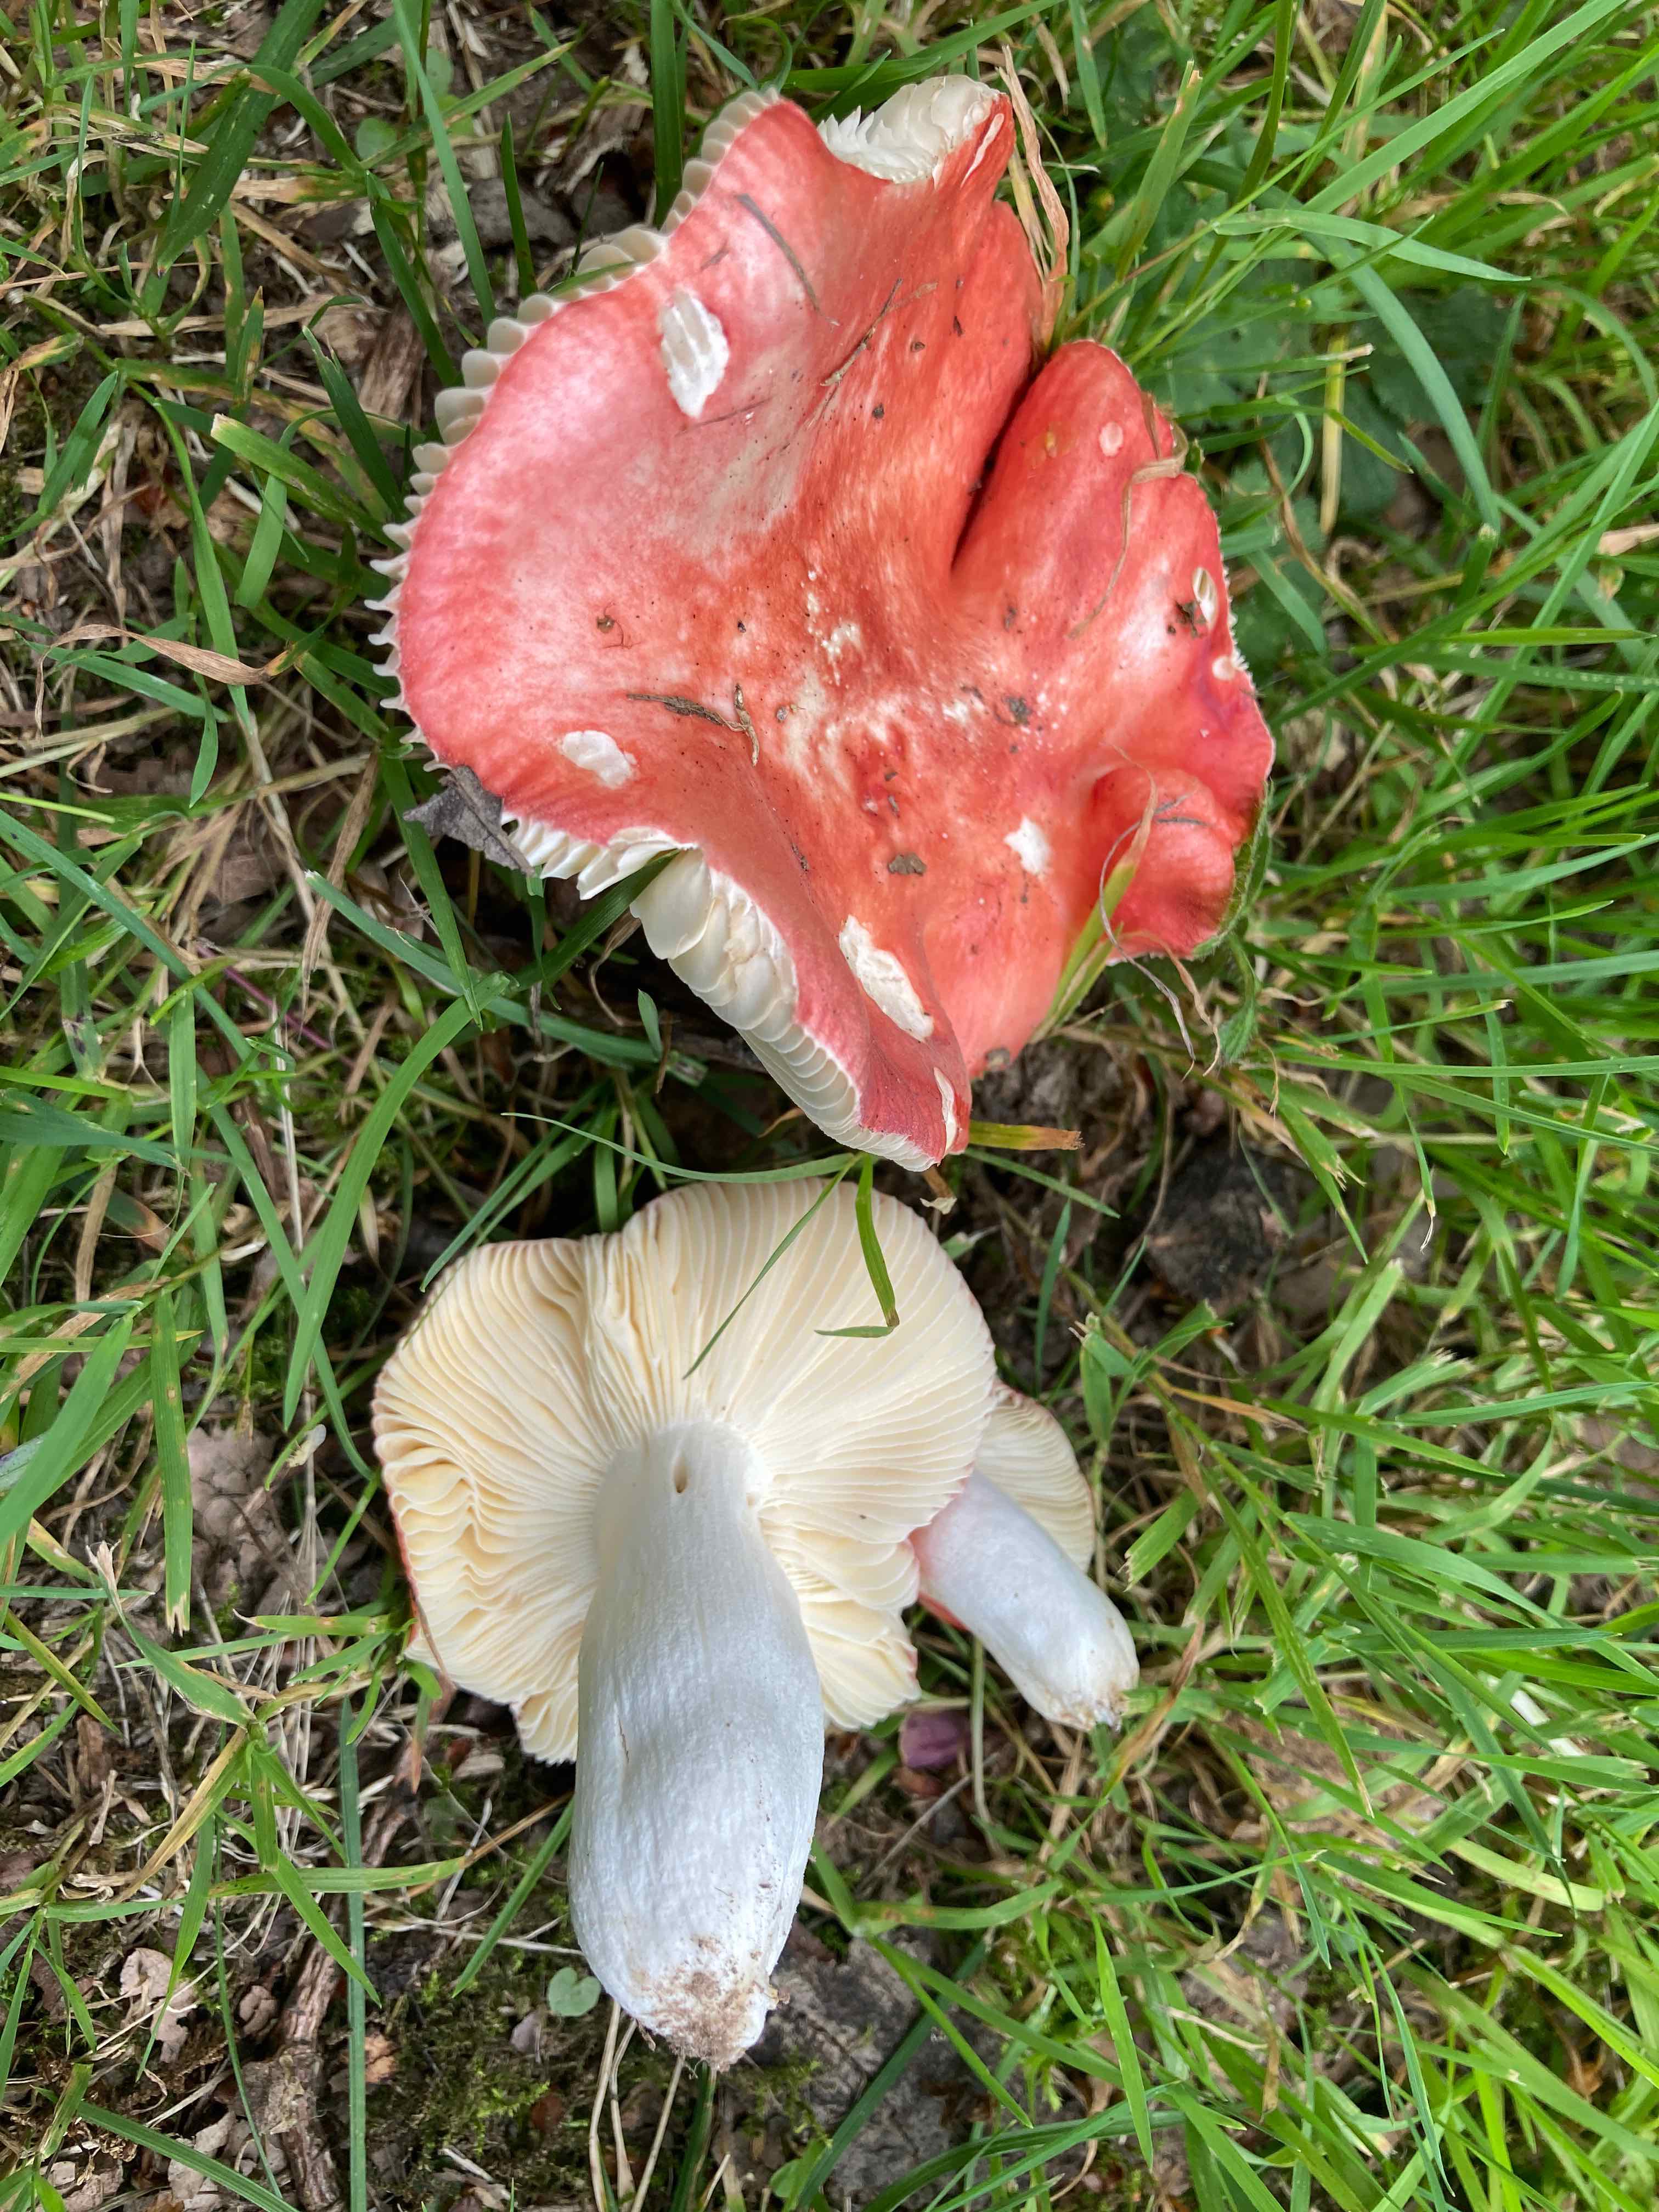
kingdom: Fungi
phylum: Basidiomycota
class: Agaricomycetes
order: Russulales
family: Russulaceae
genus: Russula
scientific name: Russula pseudointegra
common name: cinnoberrød skørhat
